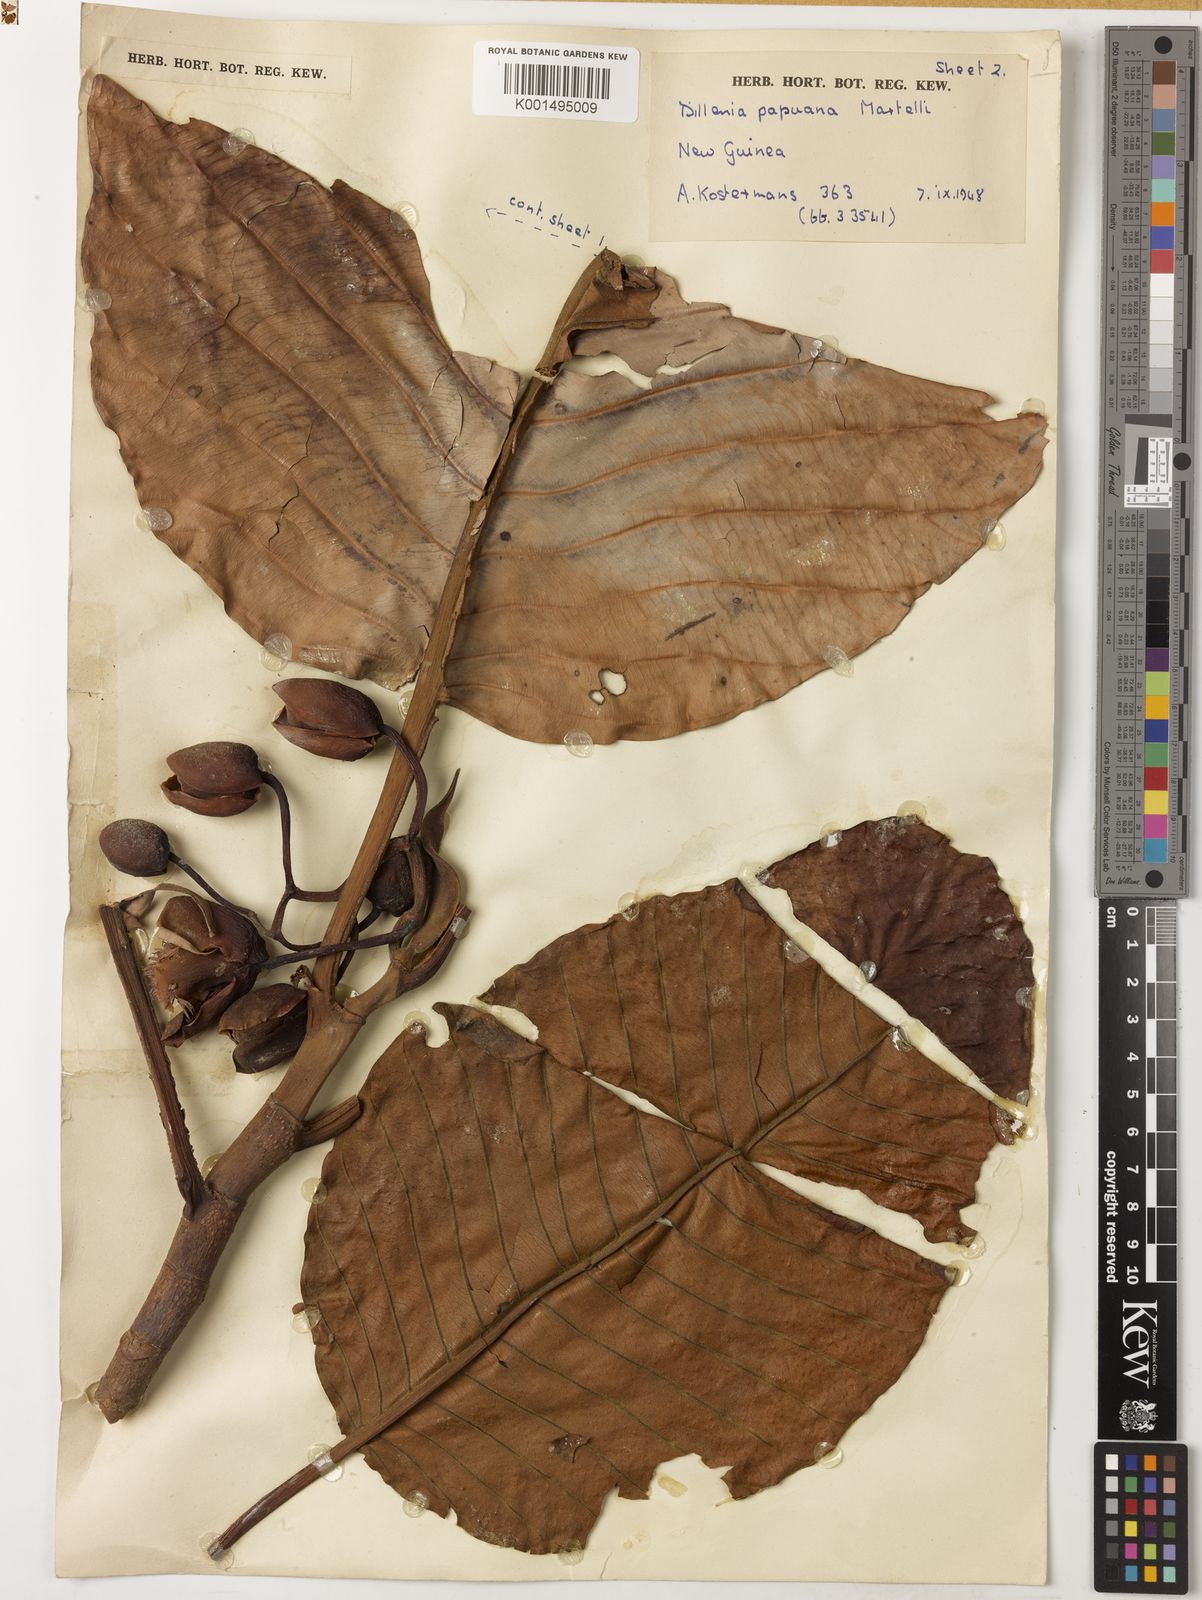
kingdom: Plantae
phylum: Tracheophyta
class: Magnoliopsida
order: Dilleniales
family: Dilleniaceae
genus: Dillenia
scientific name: Dillenia papuana
